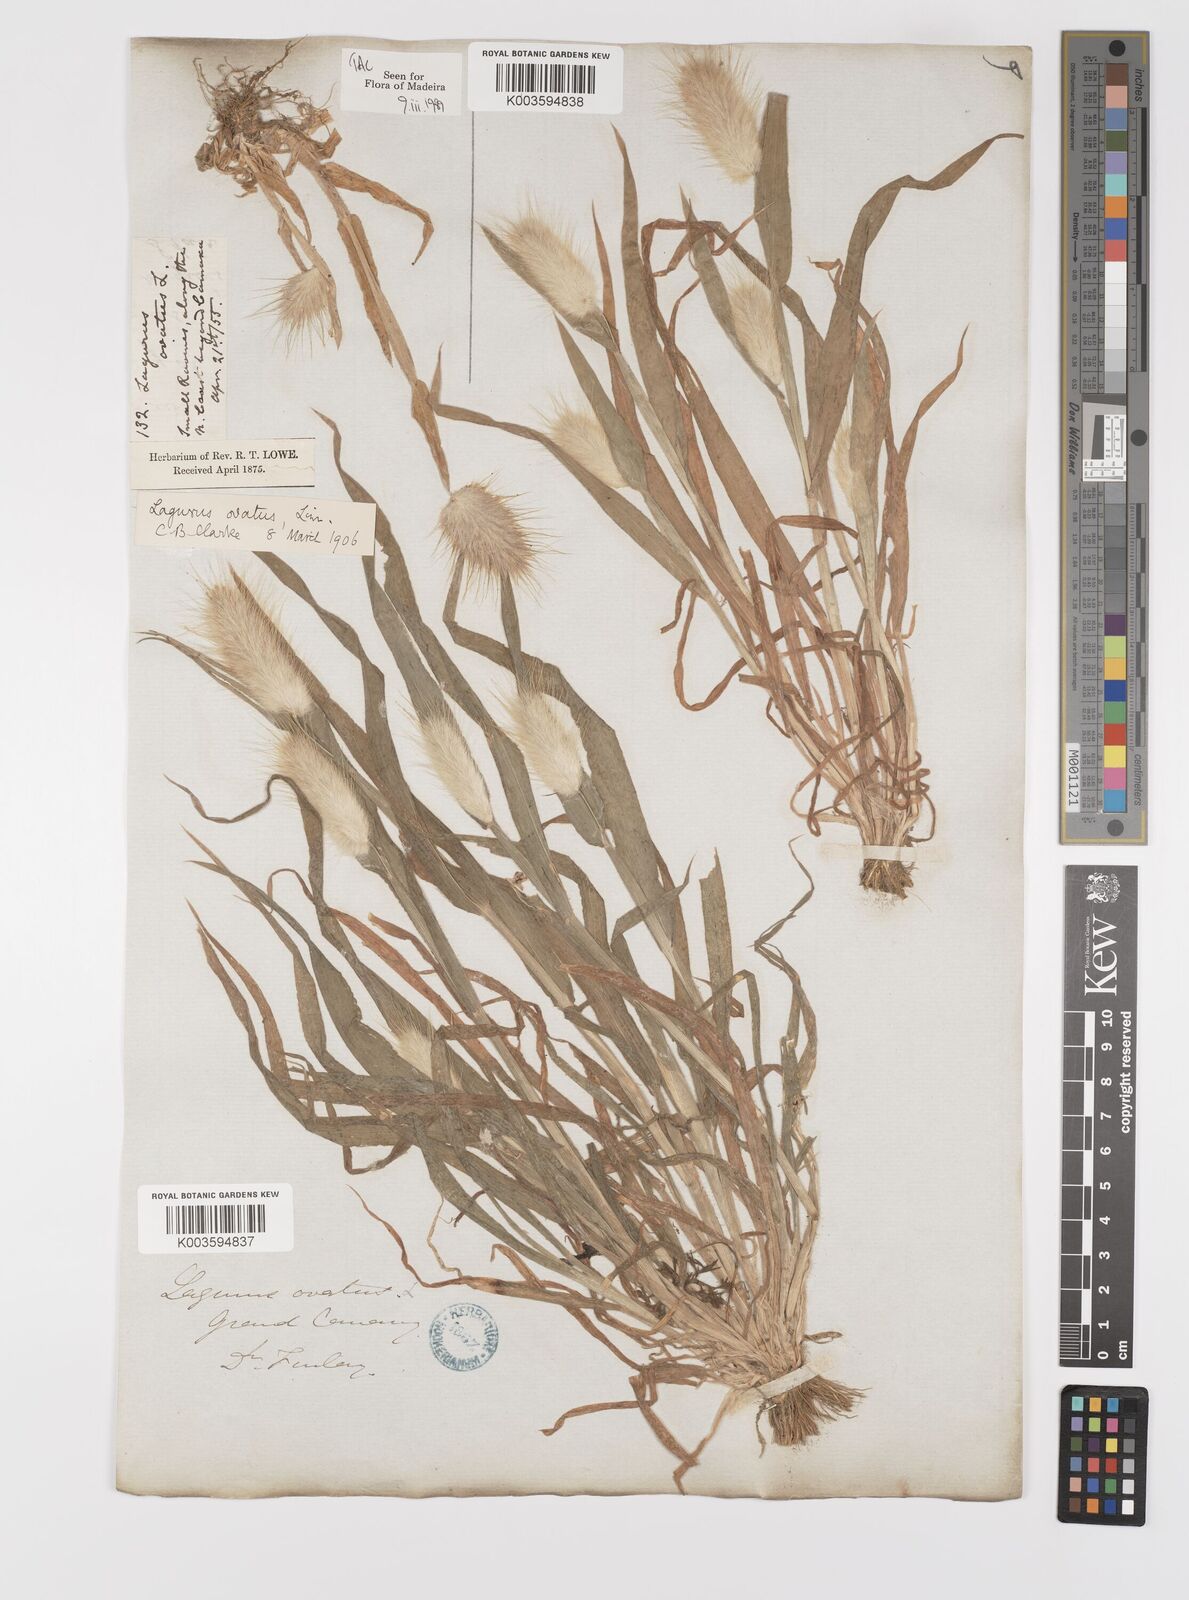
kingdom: Plantae
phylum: Tracheophyta
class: Liliopsida
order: Poales
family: Poaceae
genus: Lagurus
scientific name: Lagurus ovatus
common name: Hare's-tail
